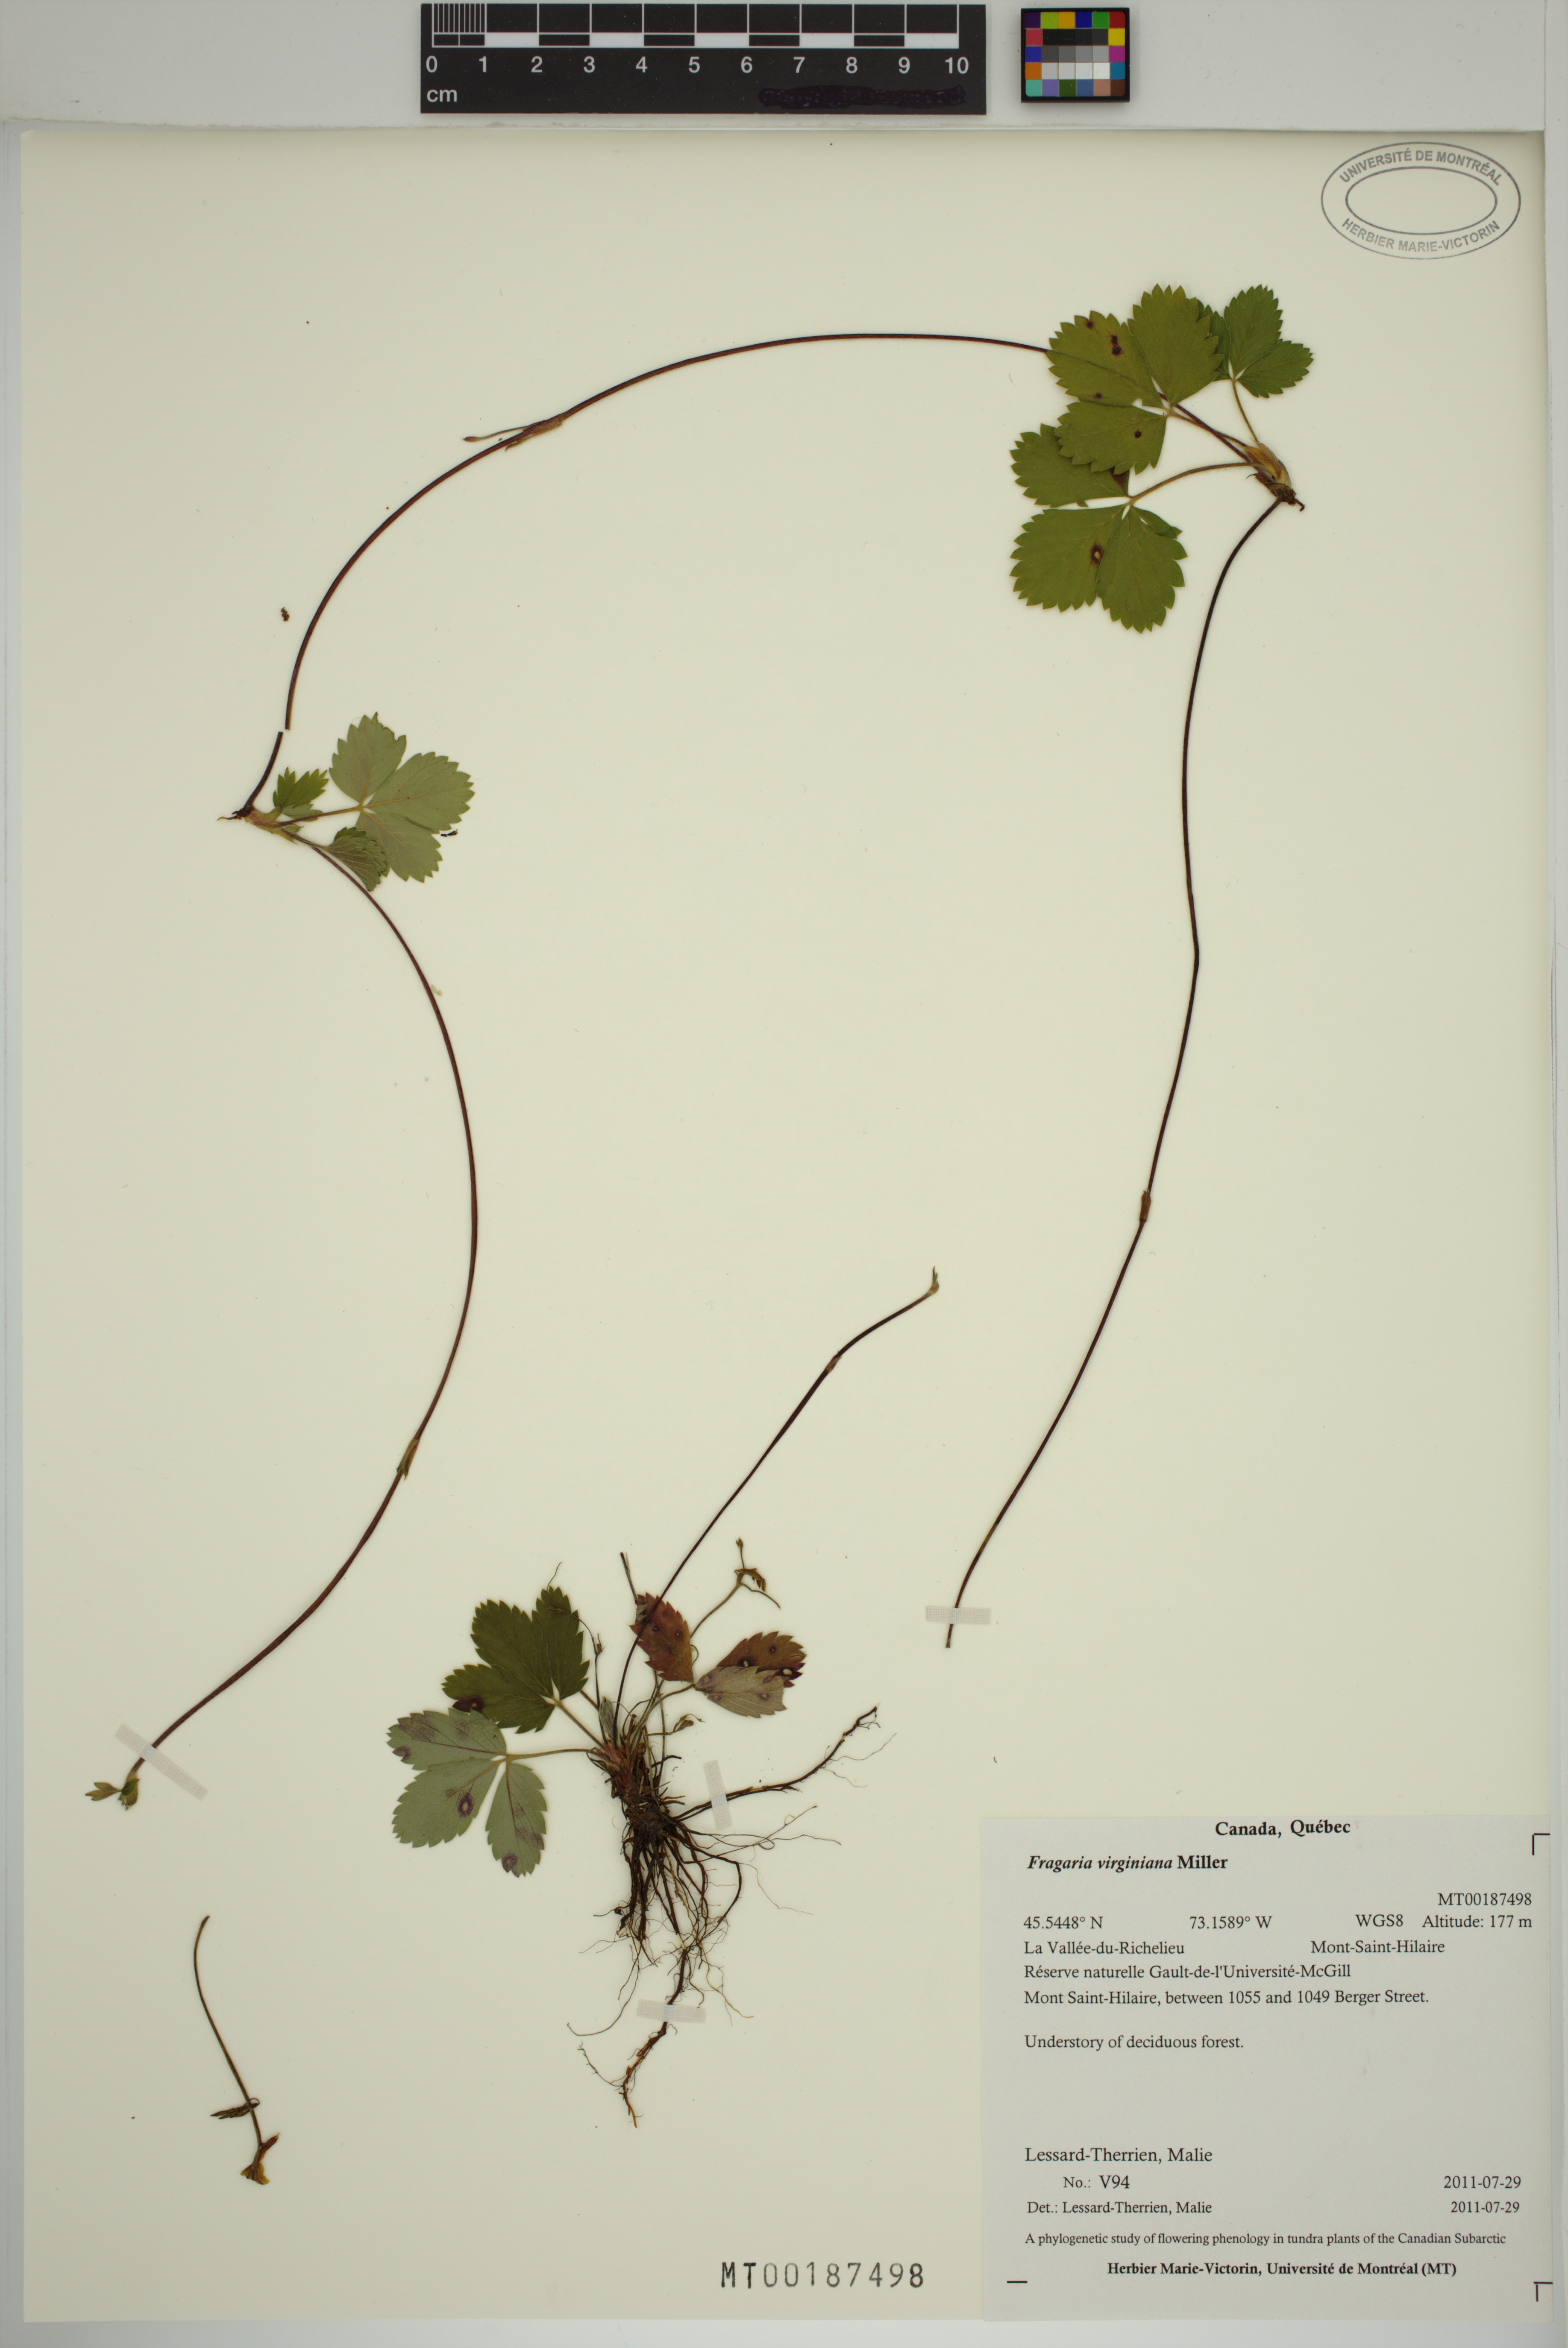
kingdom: Plantae
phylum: Tracheophyta
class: Magnoliopsida
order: Rosales
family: Rosaceae
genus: Fragaria
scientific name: Fragaria virginiana
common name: Thickleaved wild strawberry
